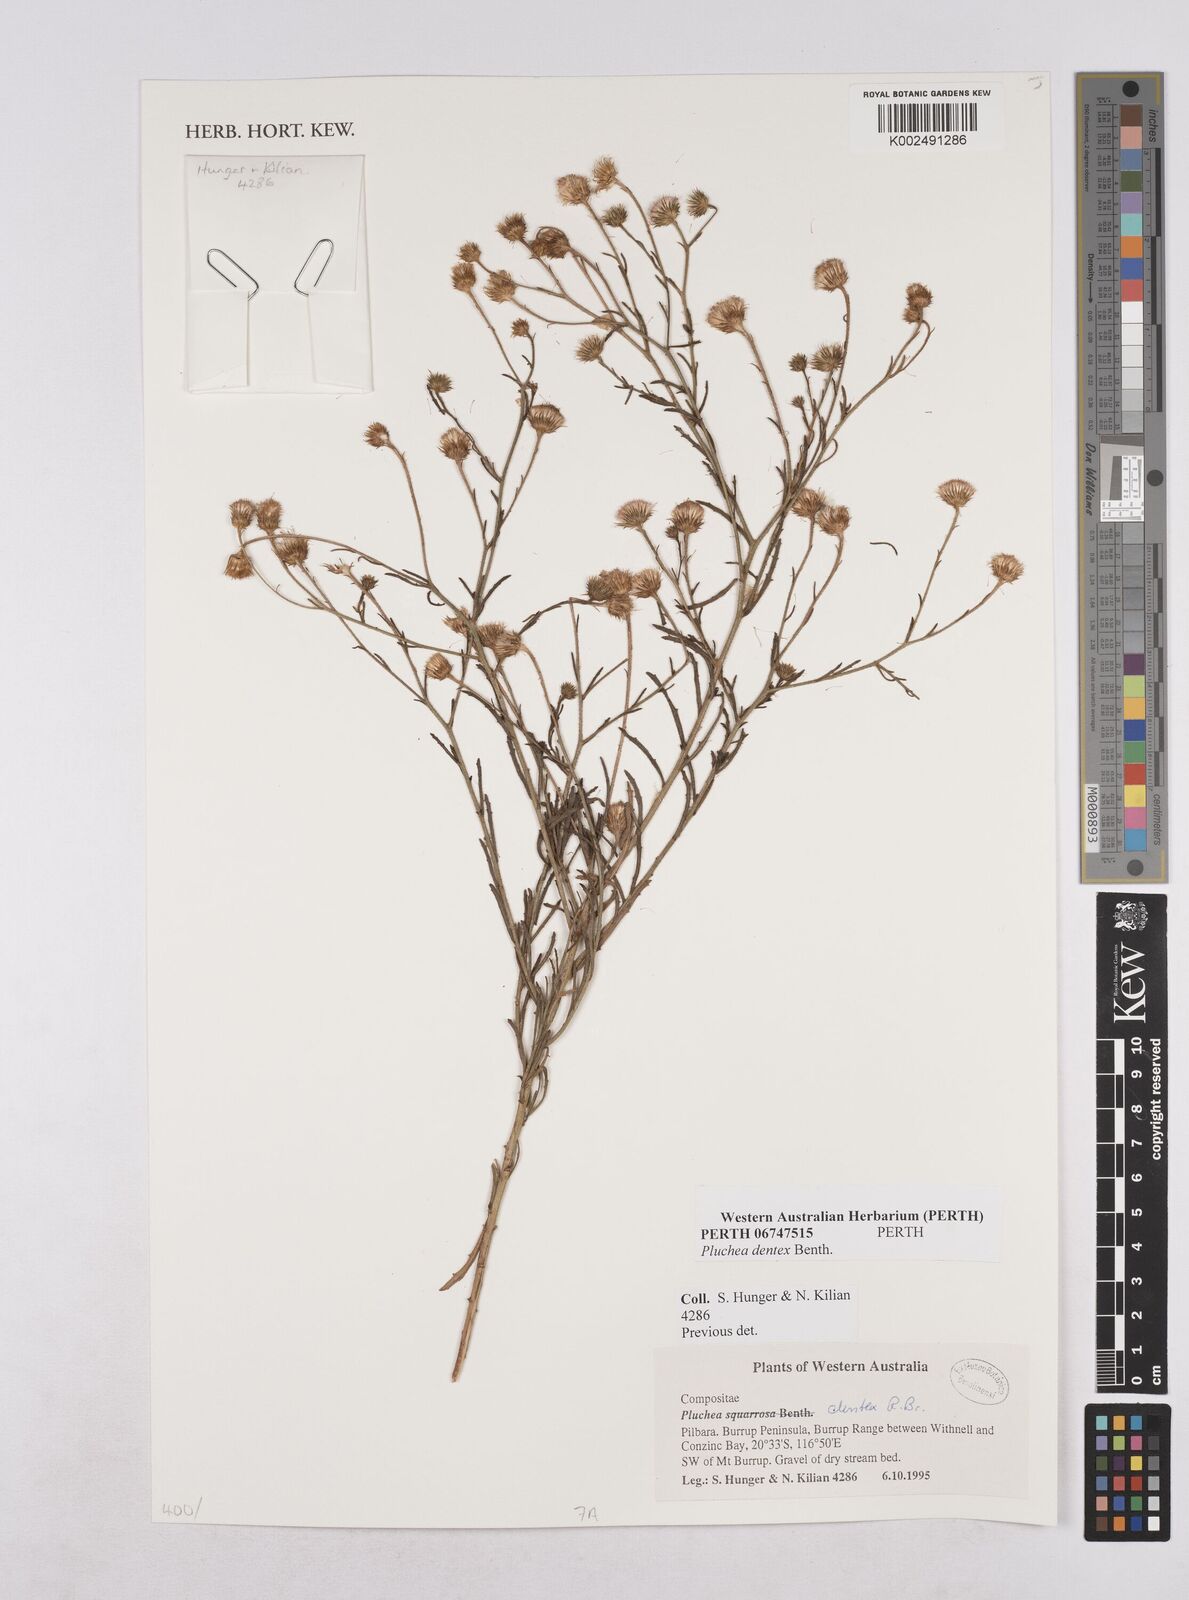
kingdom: Plantae
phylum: Tracheophyta
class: Magnoliopsida
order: Asterales
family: Asteraceae
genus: Pluchea
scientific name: Pluchea dentex
